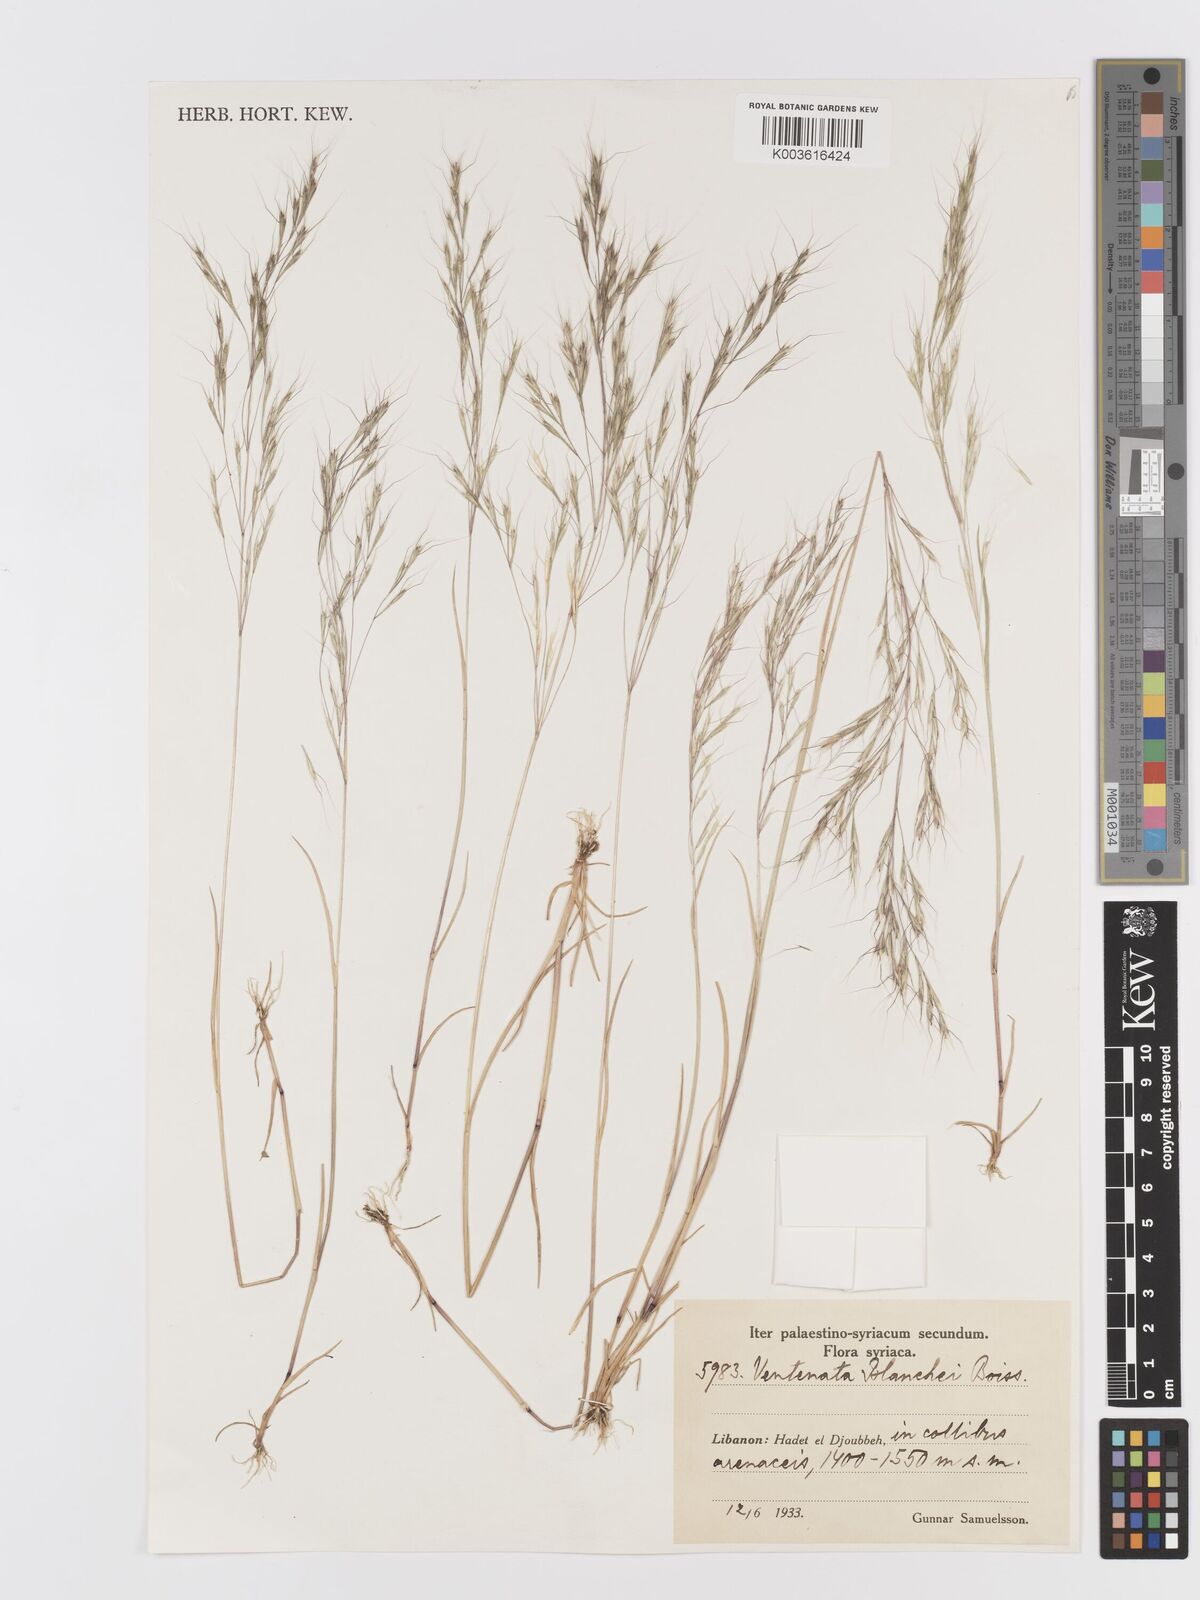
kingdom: Plantae
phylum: Tracheophyta
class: Liliopsida
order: Poales
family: Poaceae
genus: Ventenata
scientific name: Ventenata blanchei
